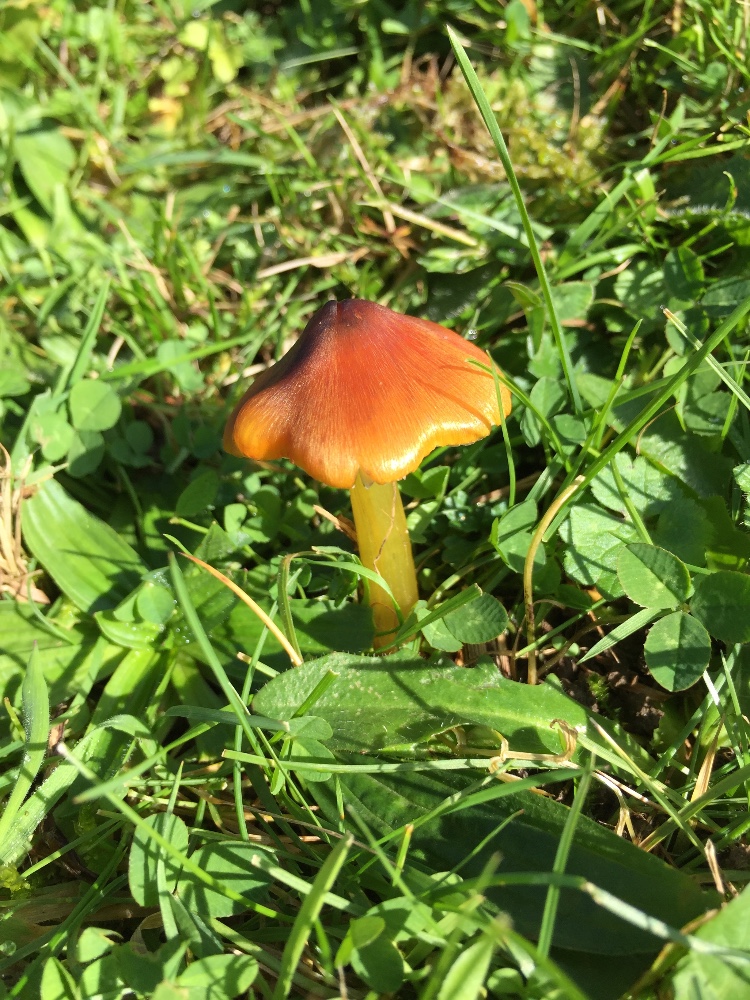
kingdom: Fungi
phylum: Basidiomycota
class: Agaricomycetes
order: Agaricales
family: Hygrophoraceae
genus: Hygrocybe
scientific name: Hygrocybe conica
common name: kegle-vokshat
